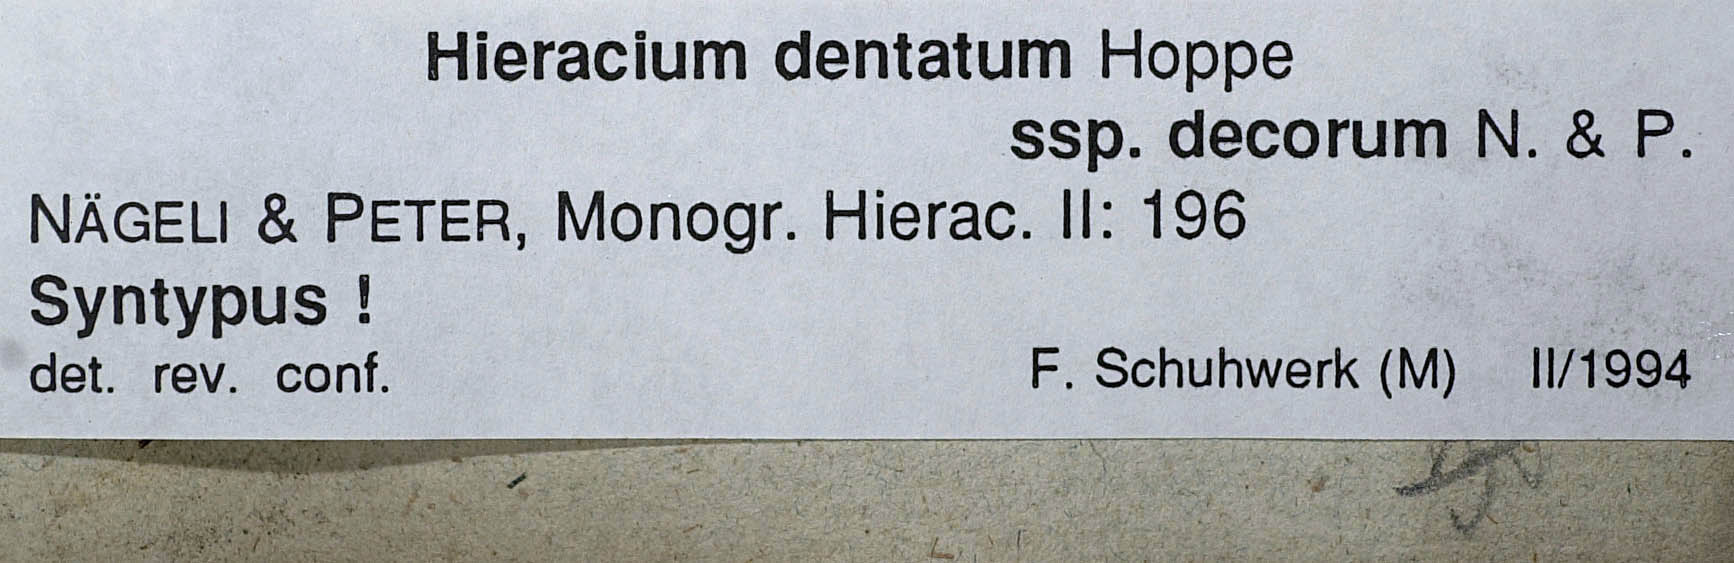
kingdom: Plantae
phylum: Tracheophyta
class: Magnoliopsida
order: Asterales
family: Asteraceae
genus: Hieracium
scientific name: Hieracium dentatum
